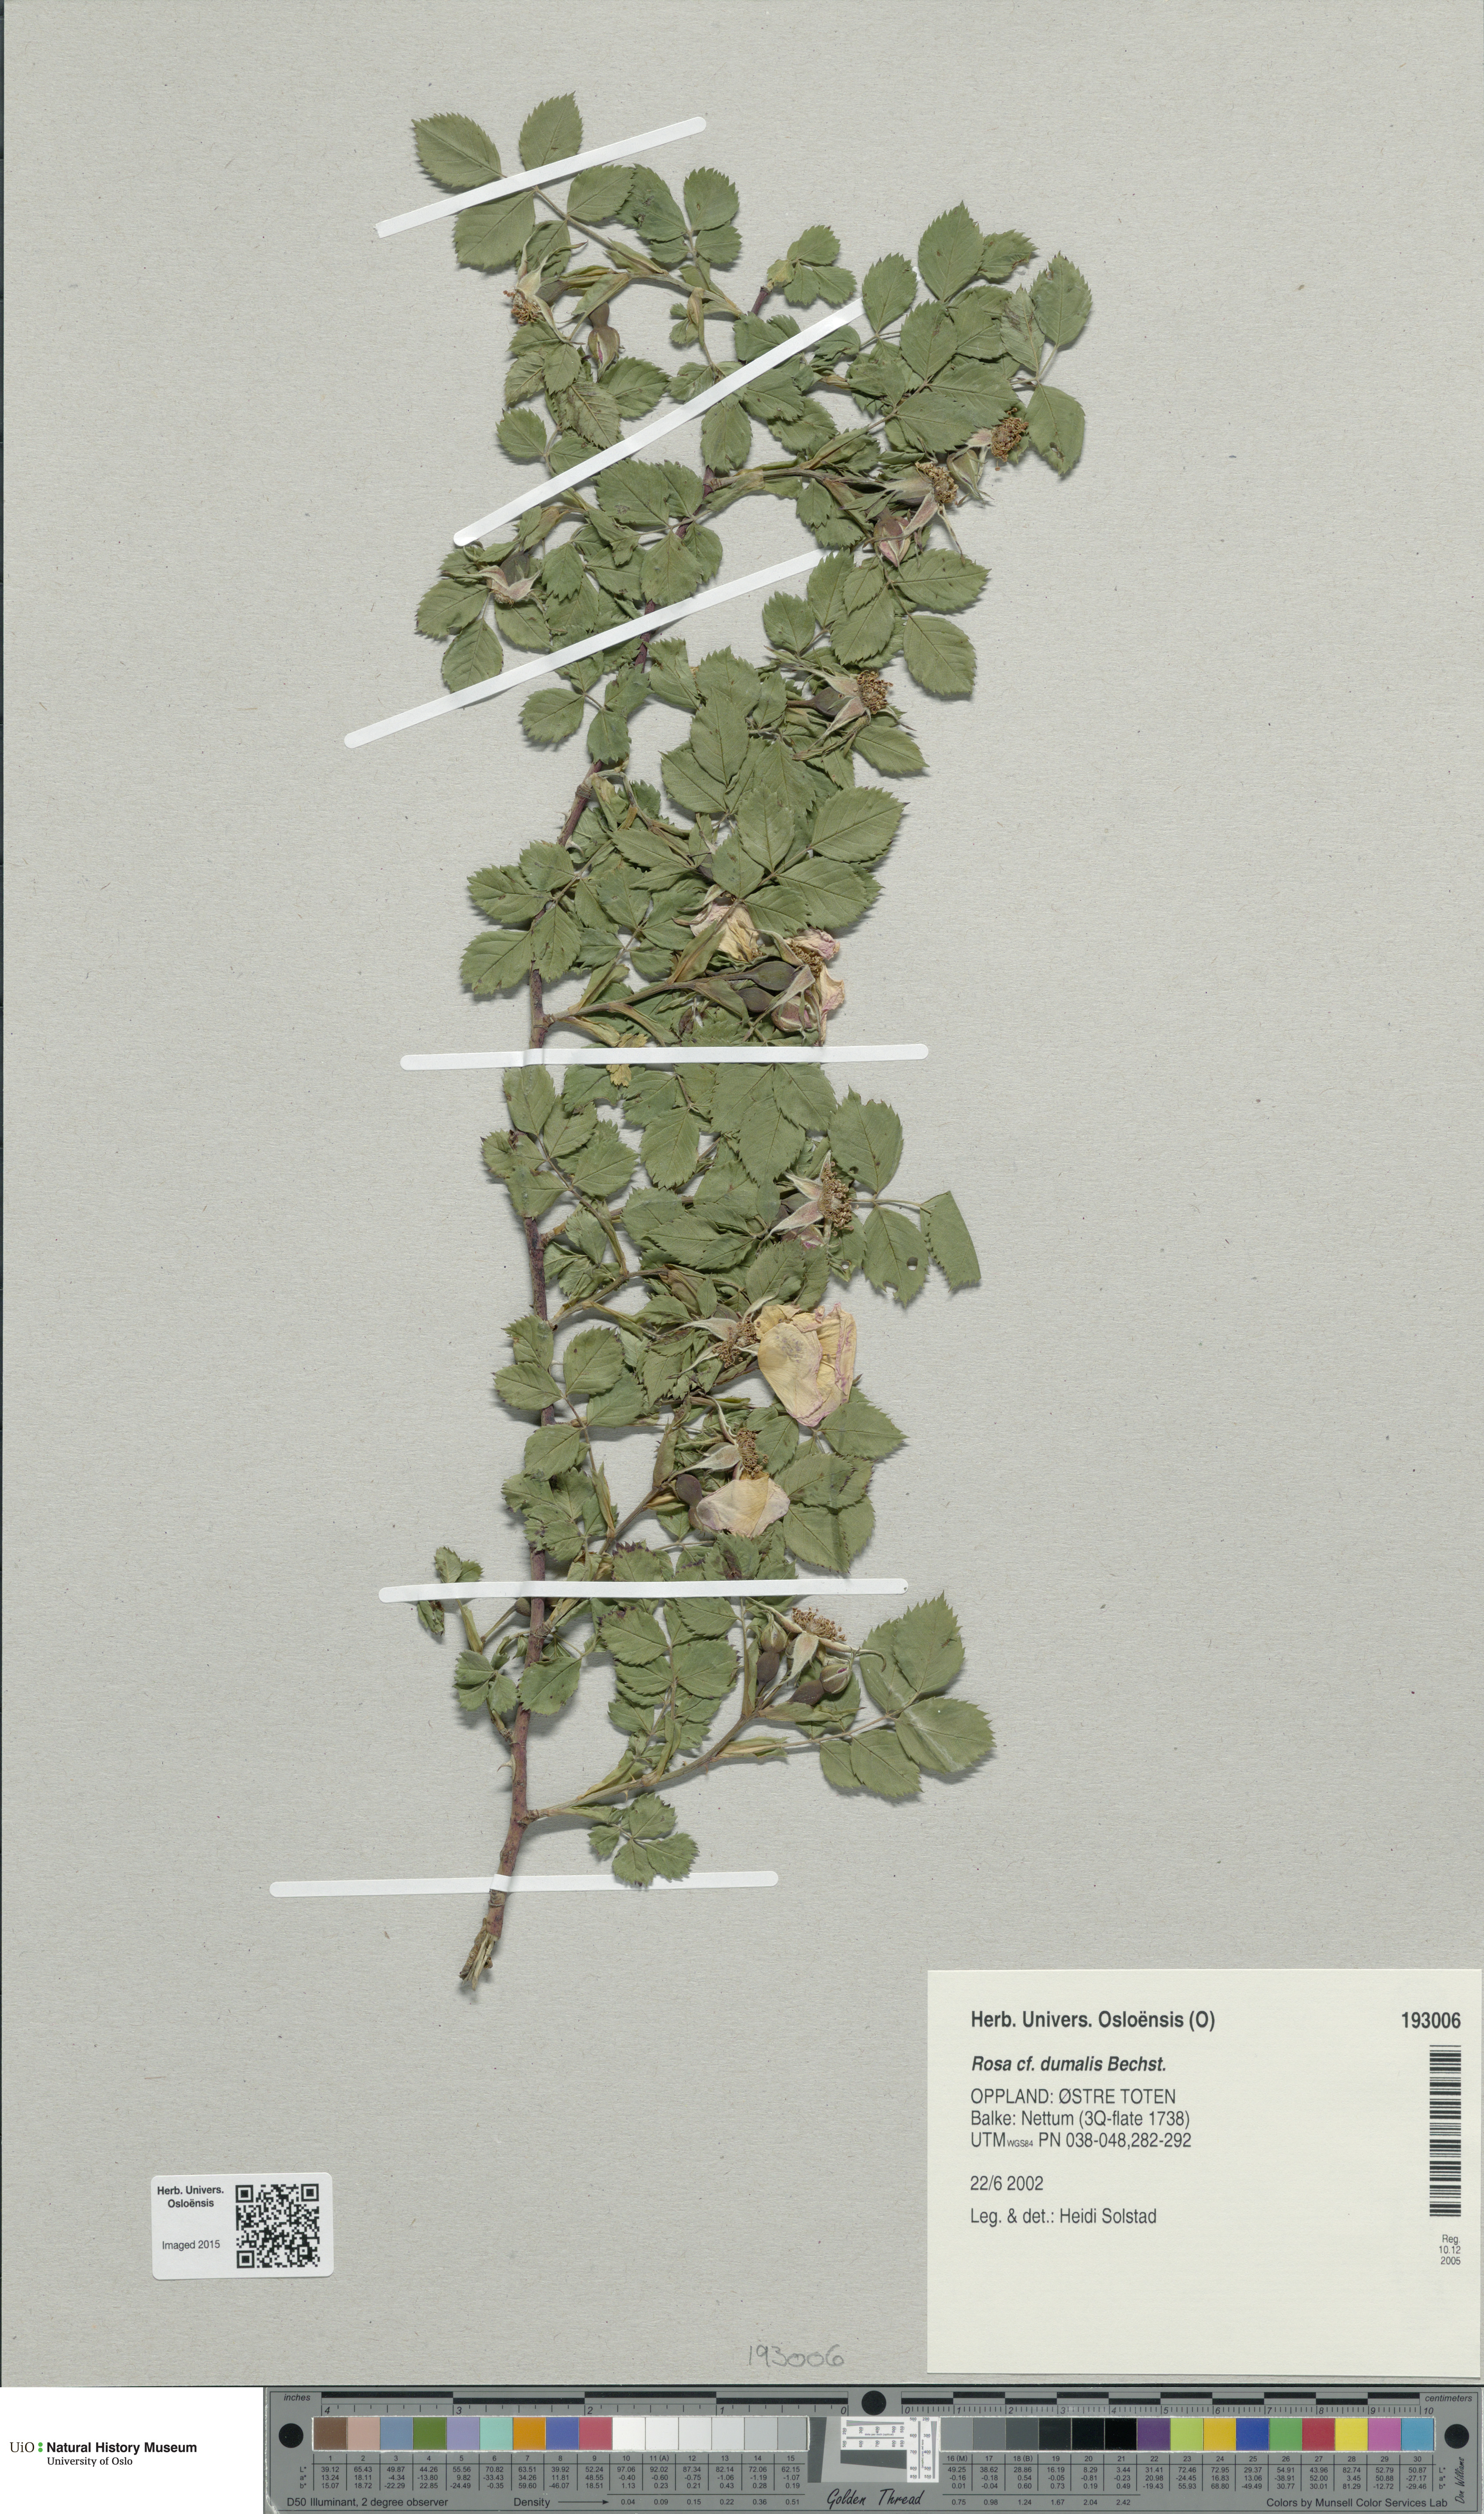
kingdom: Plantae
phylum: Tracheophyta
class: Magnoliopsida
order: Rosales
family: Rosaceae
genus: Rosa
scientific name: Rosa dumalis
